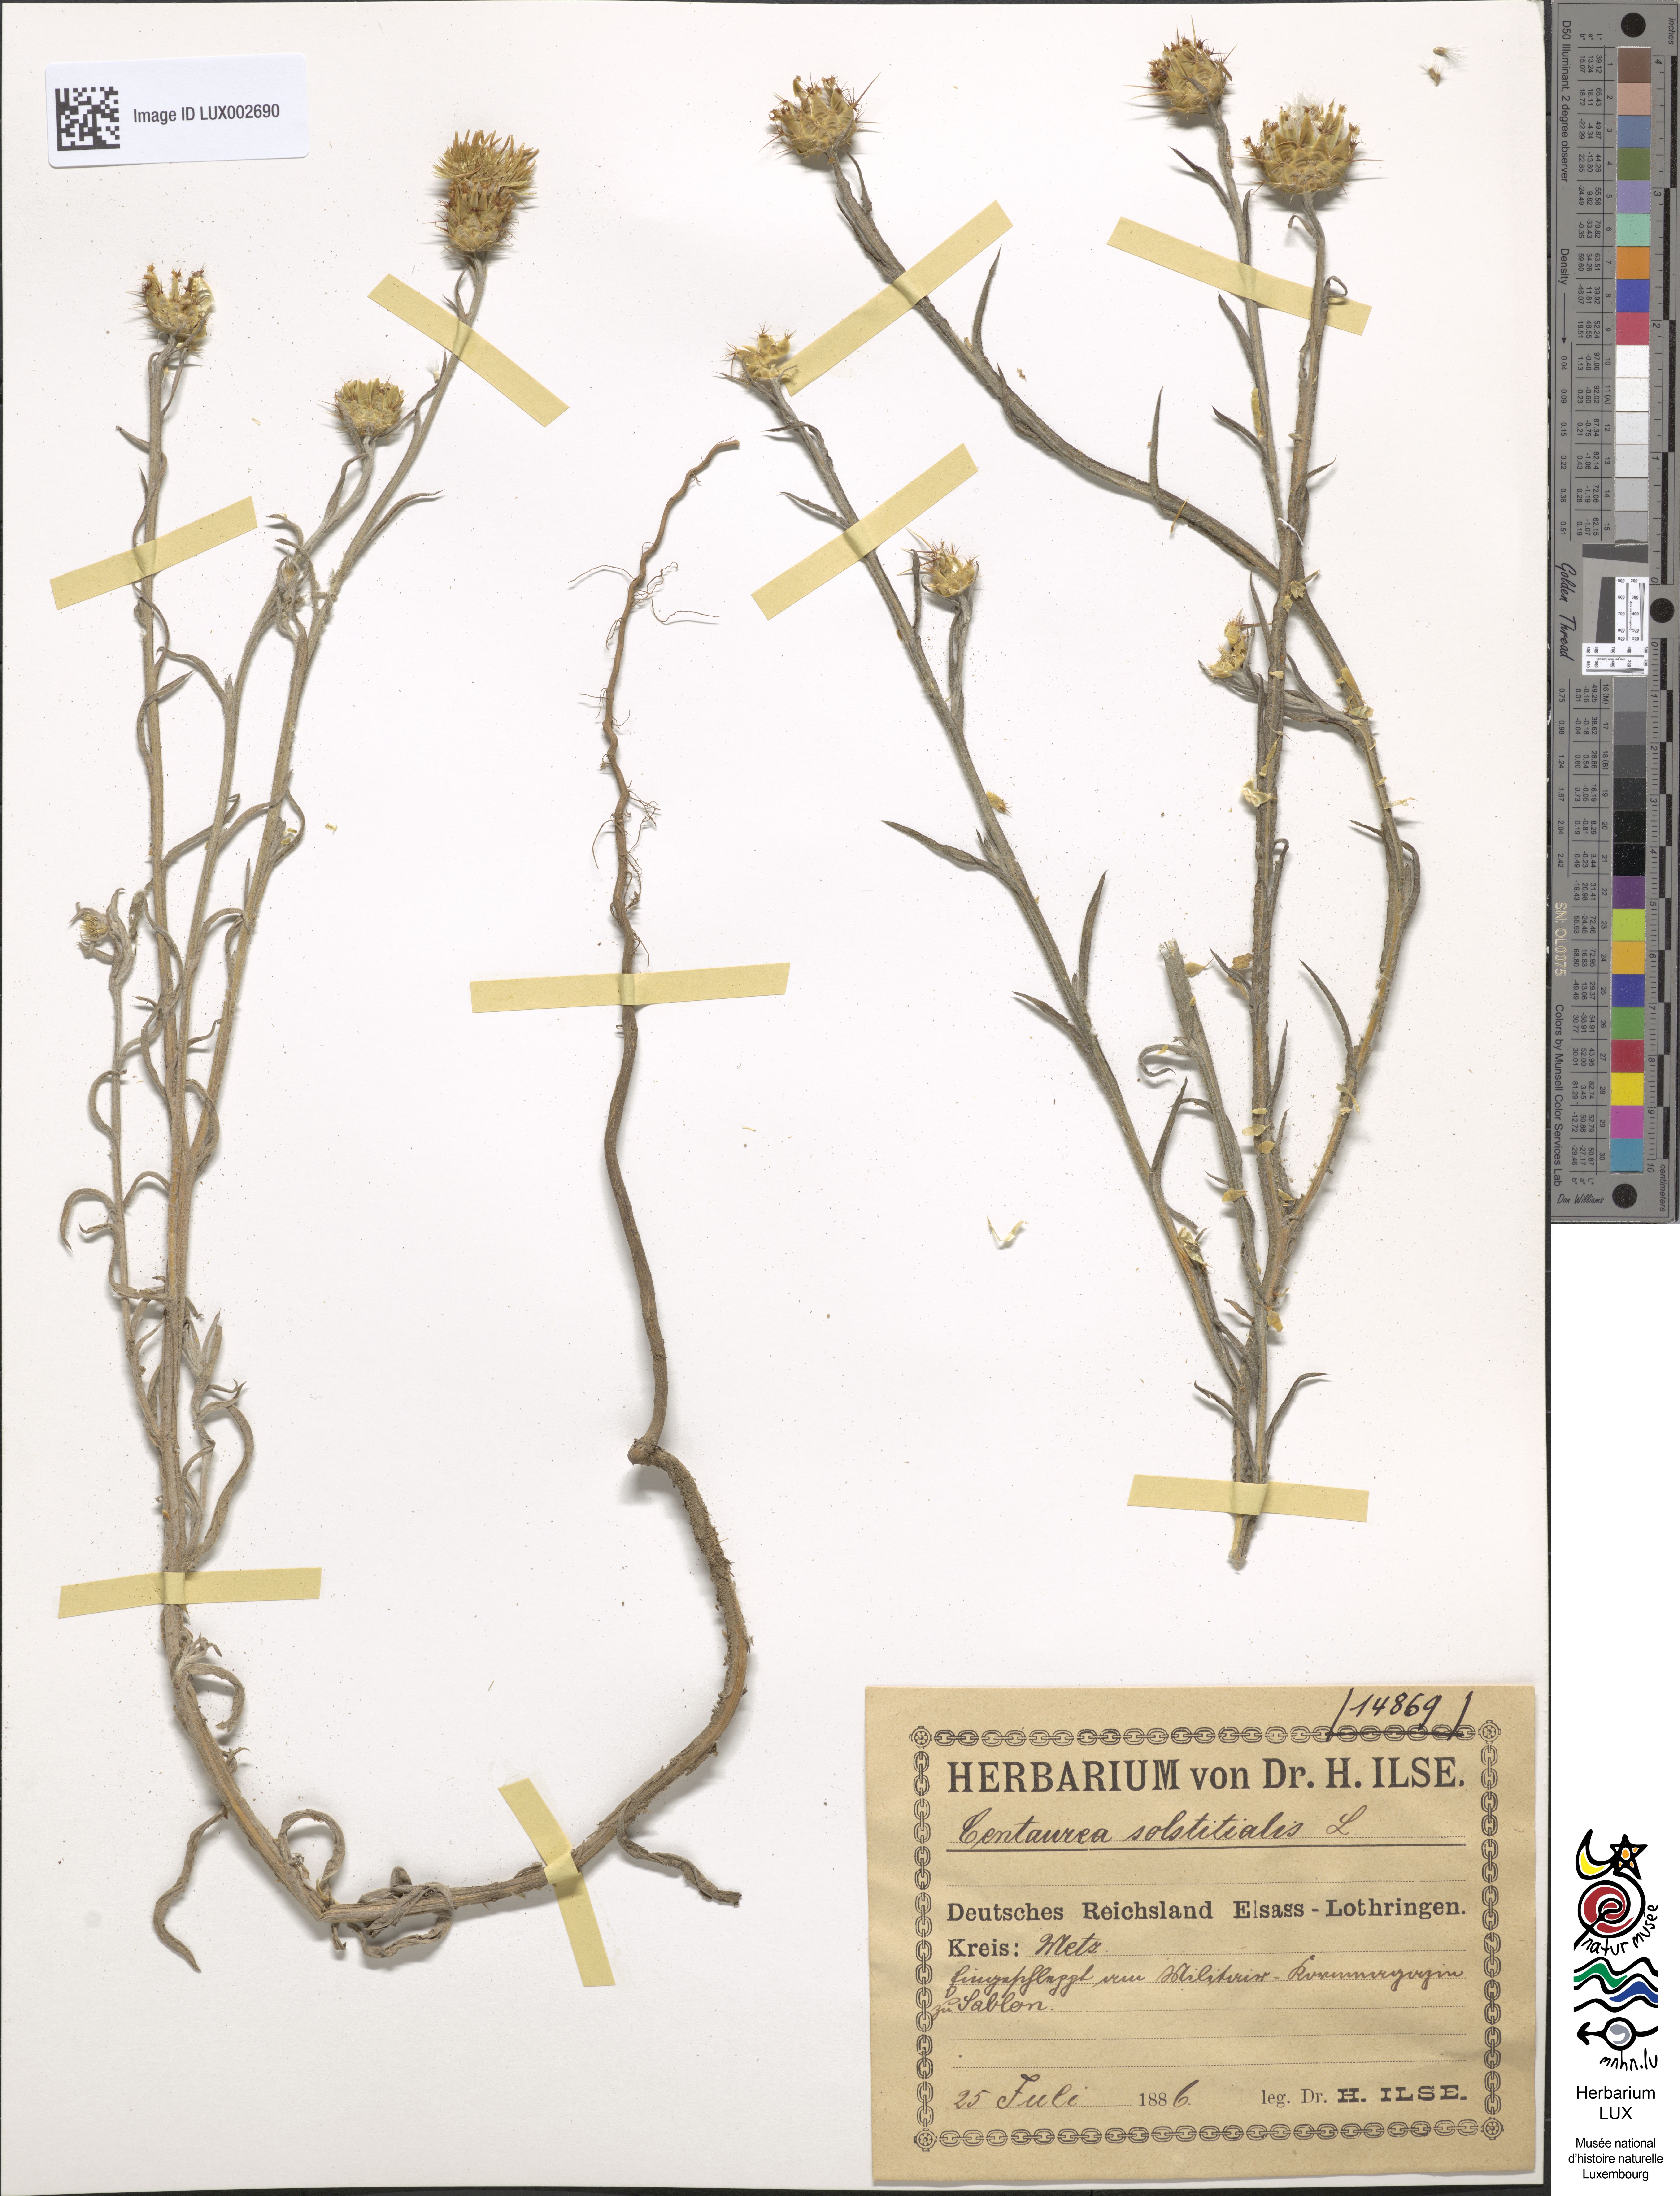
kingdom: Plantae
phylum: Tracheophyta
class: Magnoliopsida
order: Asterales
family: Asteraceae
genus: Centaurea
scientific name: Centaurea solstitialis
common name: Yellow star-thistle
